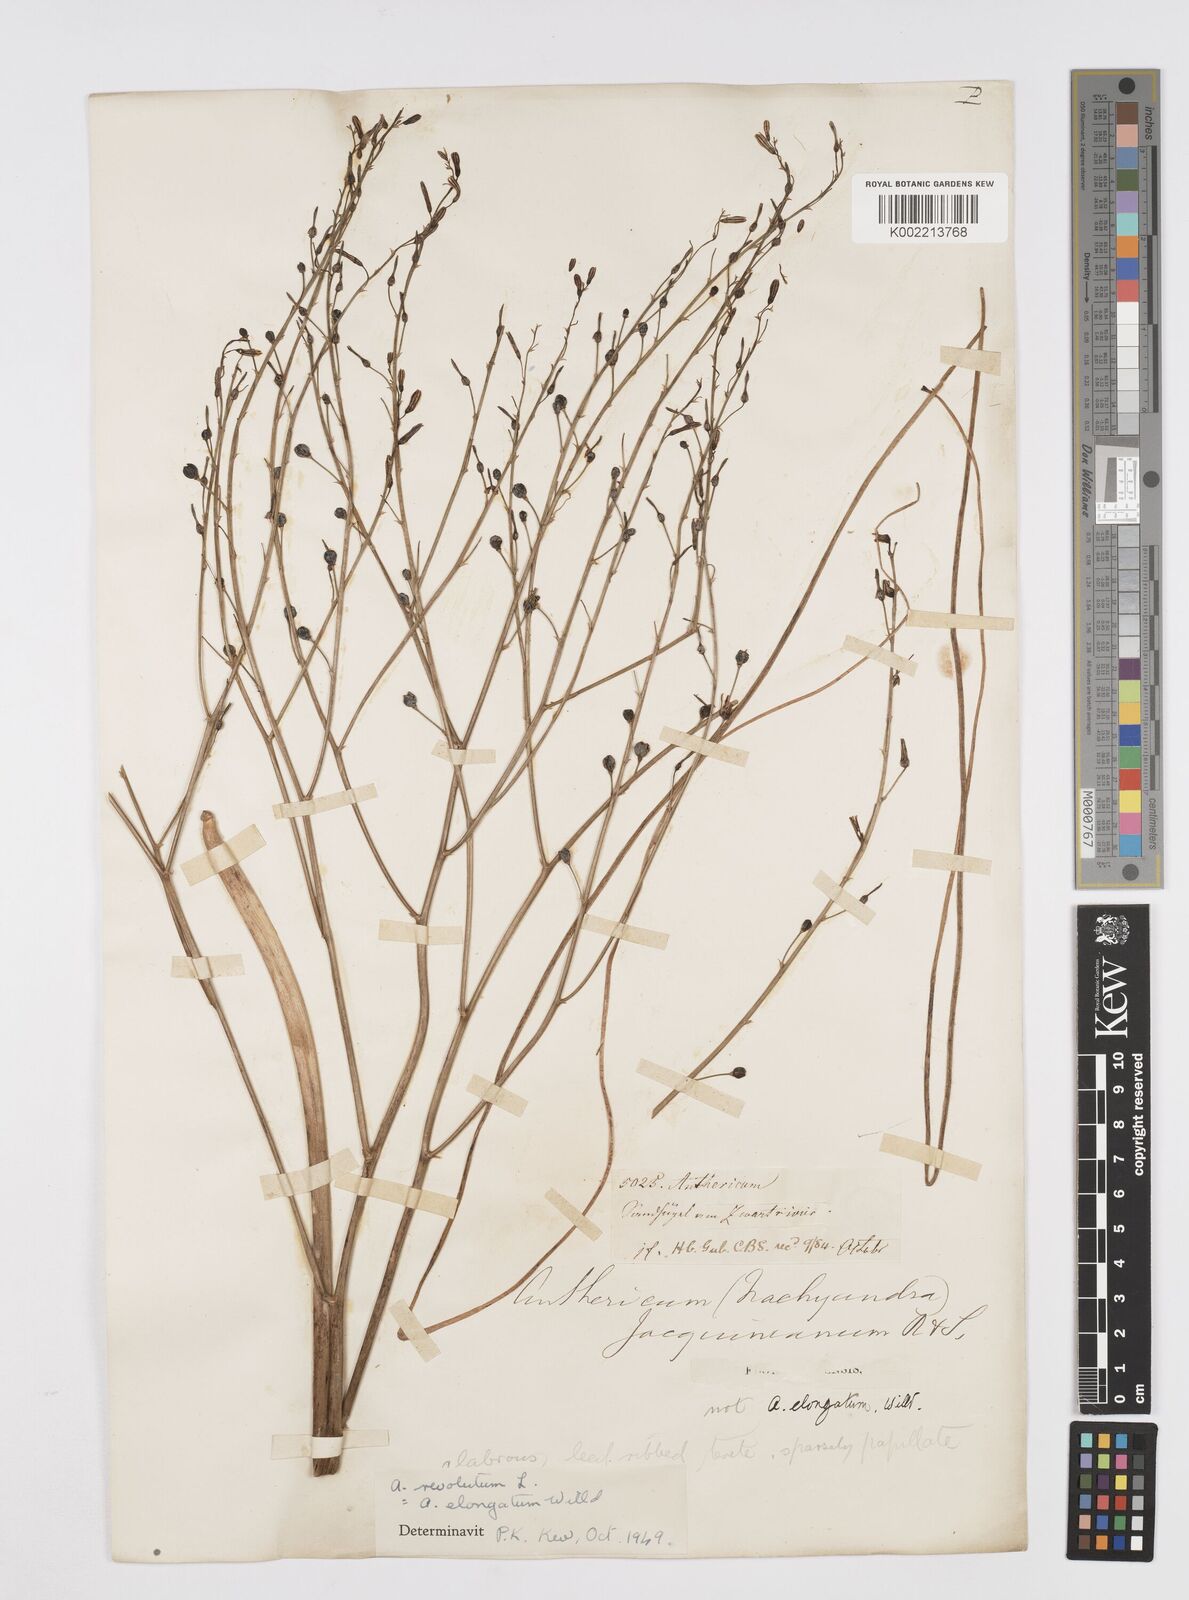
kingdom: Plantae
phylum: Tracheophyta
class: Liliopsida
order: Asparagales
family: Asphodelaceae
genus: Trachyandra
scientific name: Trachyandra revoluta
